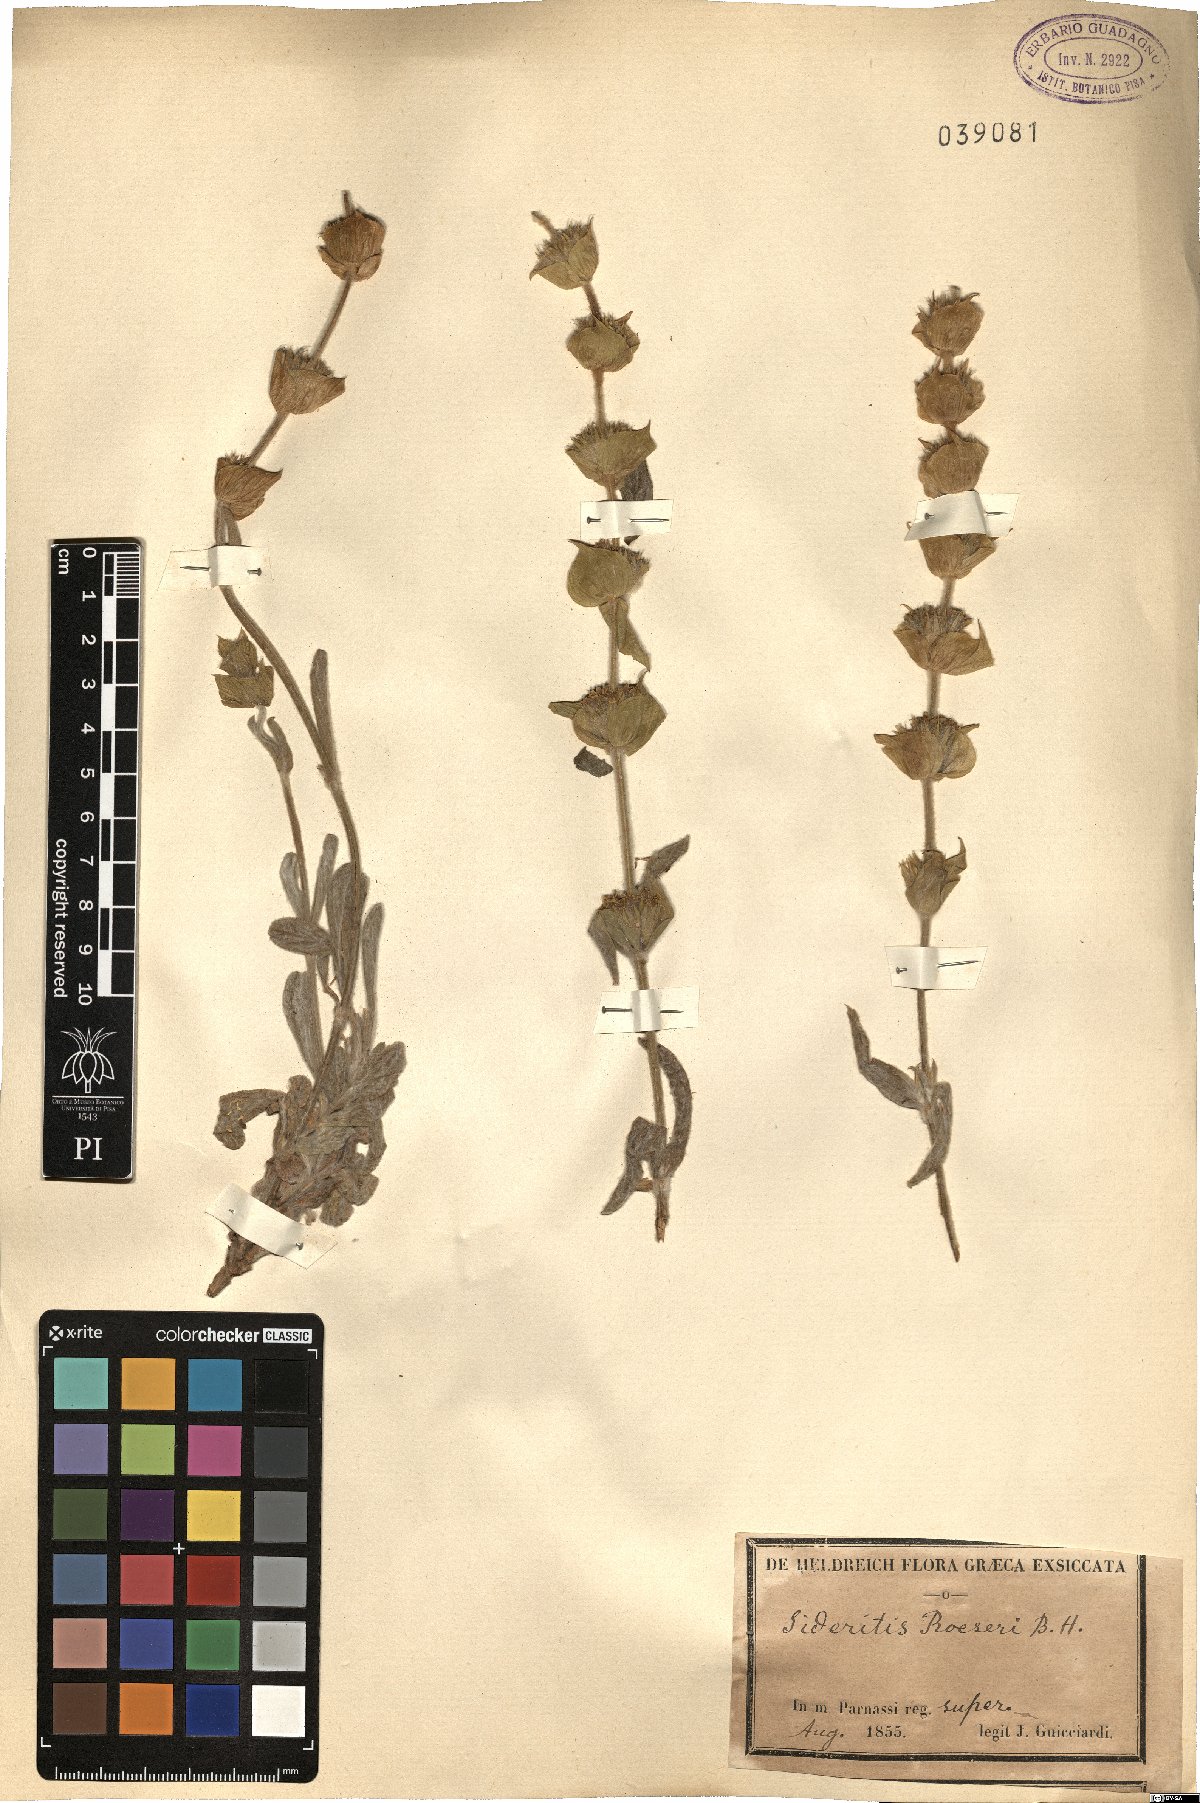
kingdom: Plantae
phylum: Tracheophyta
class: Magnoliopsida
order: Lamiales
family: Lamiaceae
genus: Sideritis
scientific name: Sideritis raeseri
